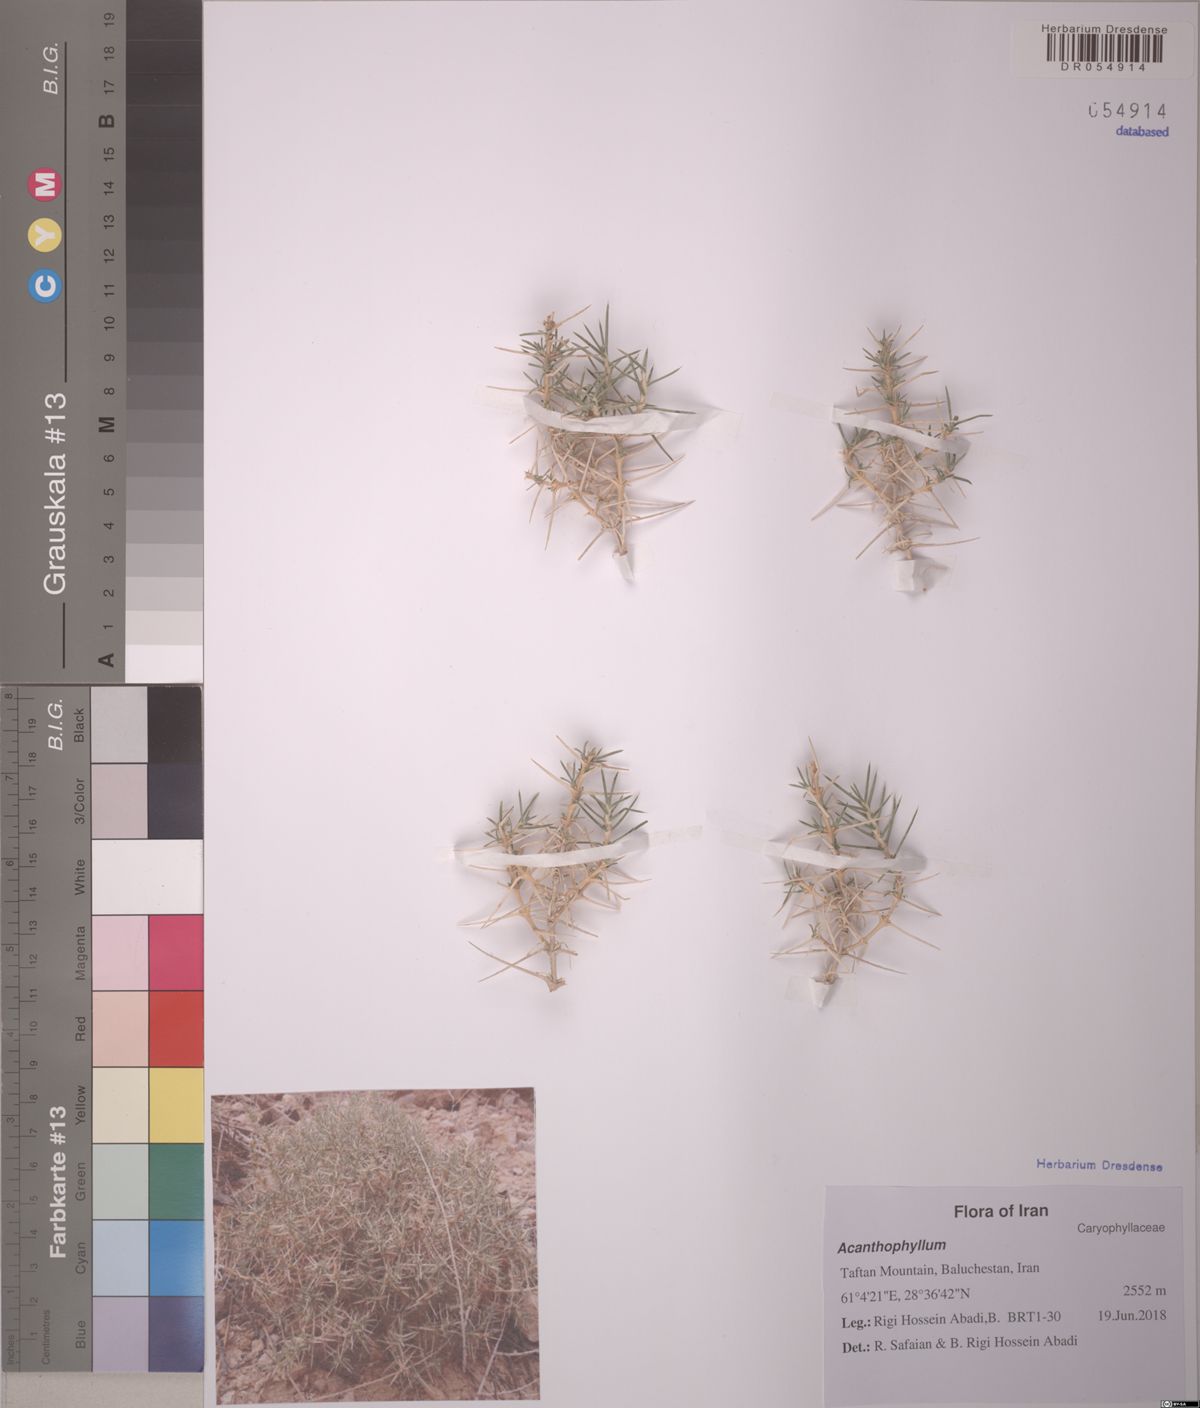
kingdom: Plantae
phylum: Tracheophyta
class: Magnoliopsida
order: Caryophyllales
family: Plumbaginaceae
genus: Acantholimon
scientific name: Acantholimon stocksii
